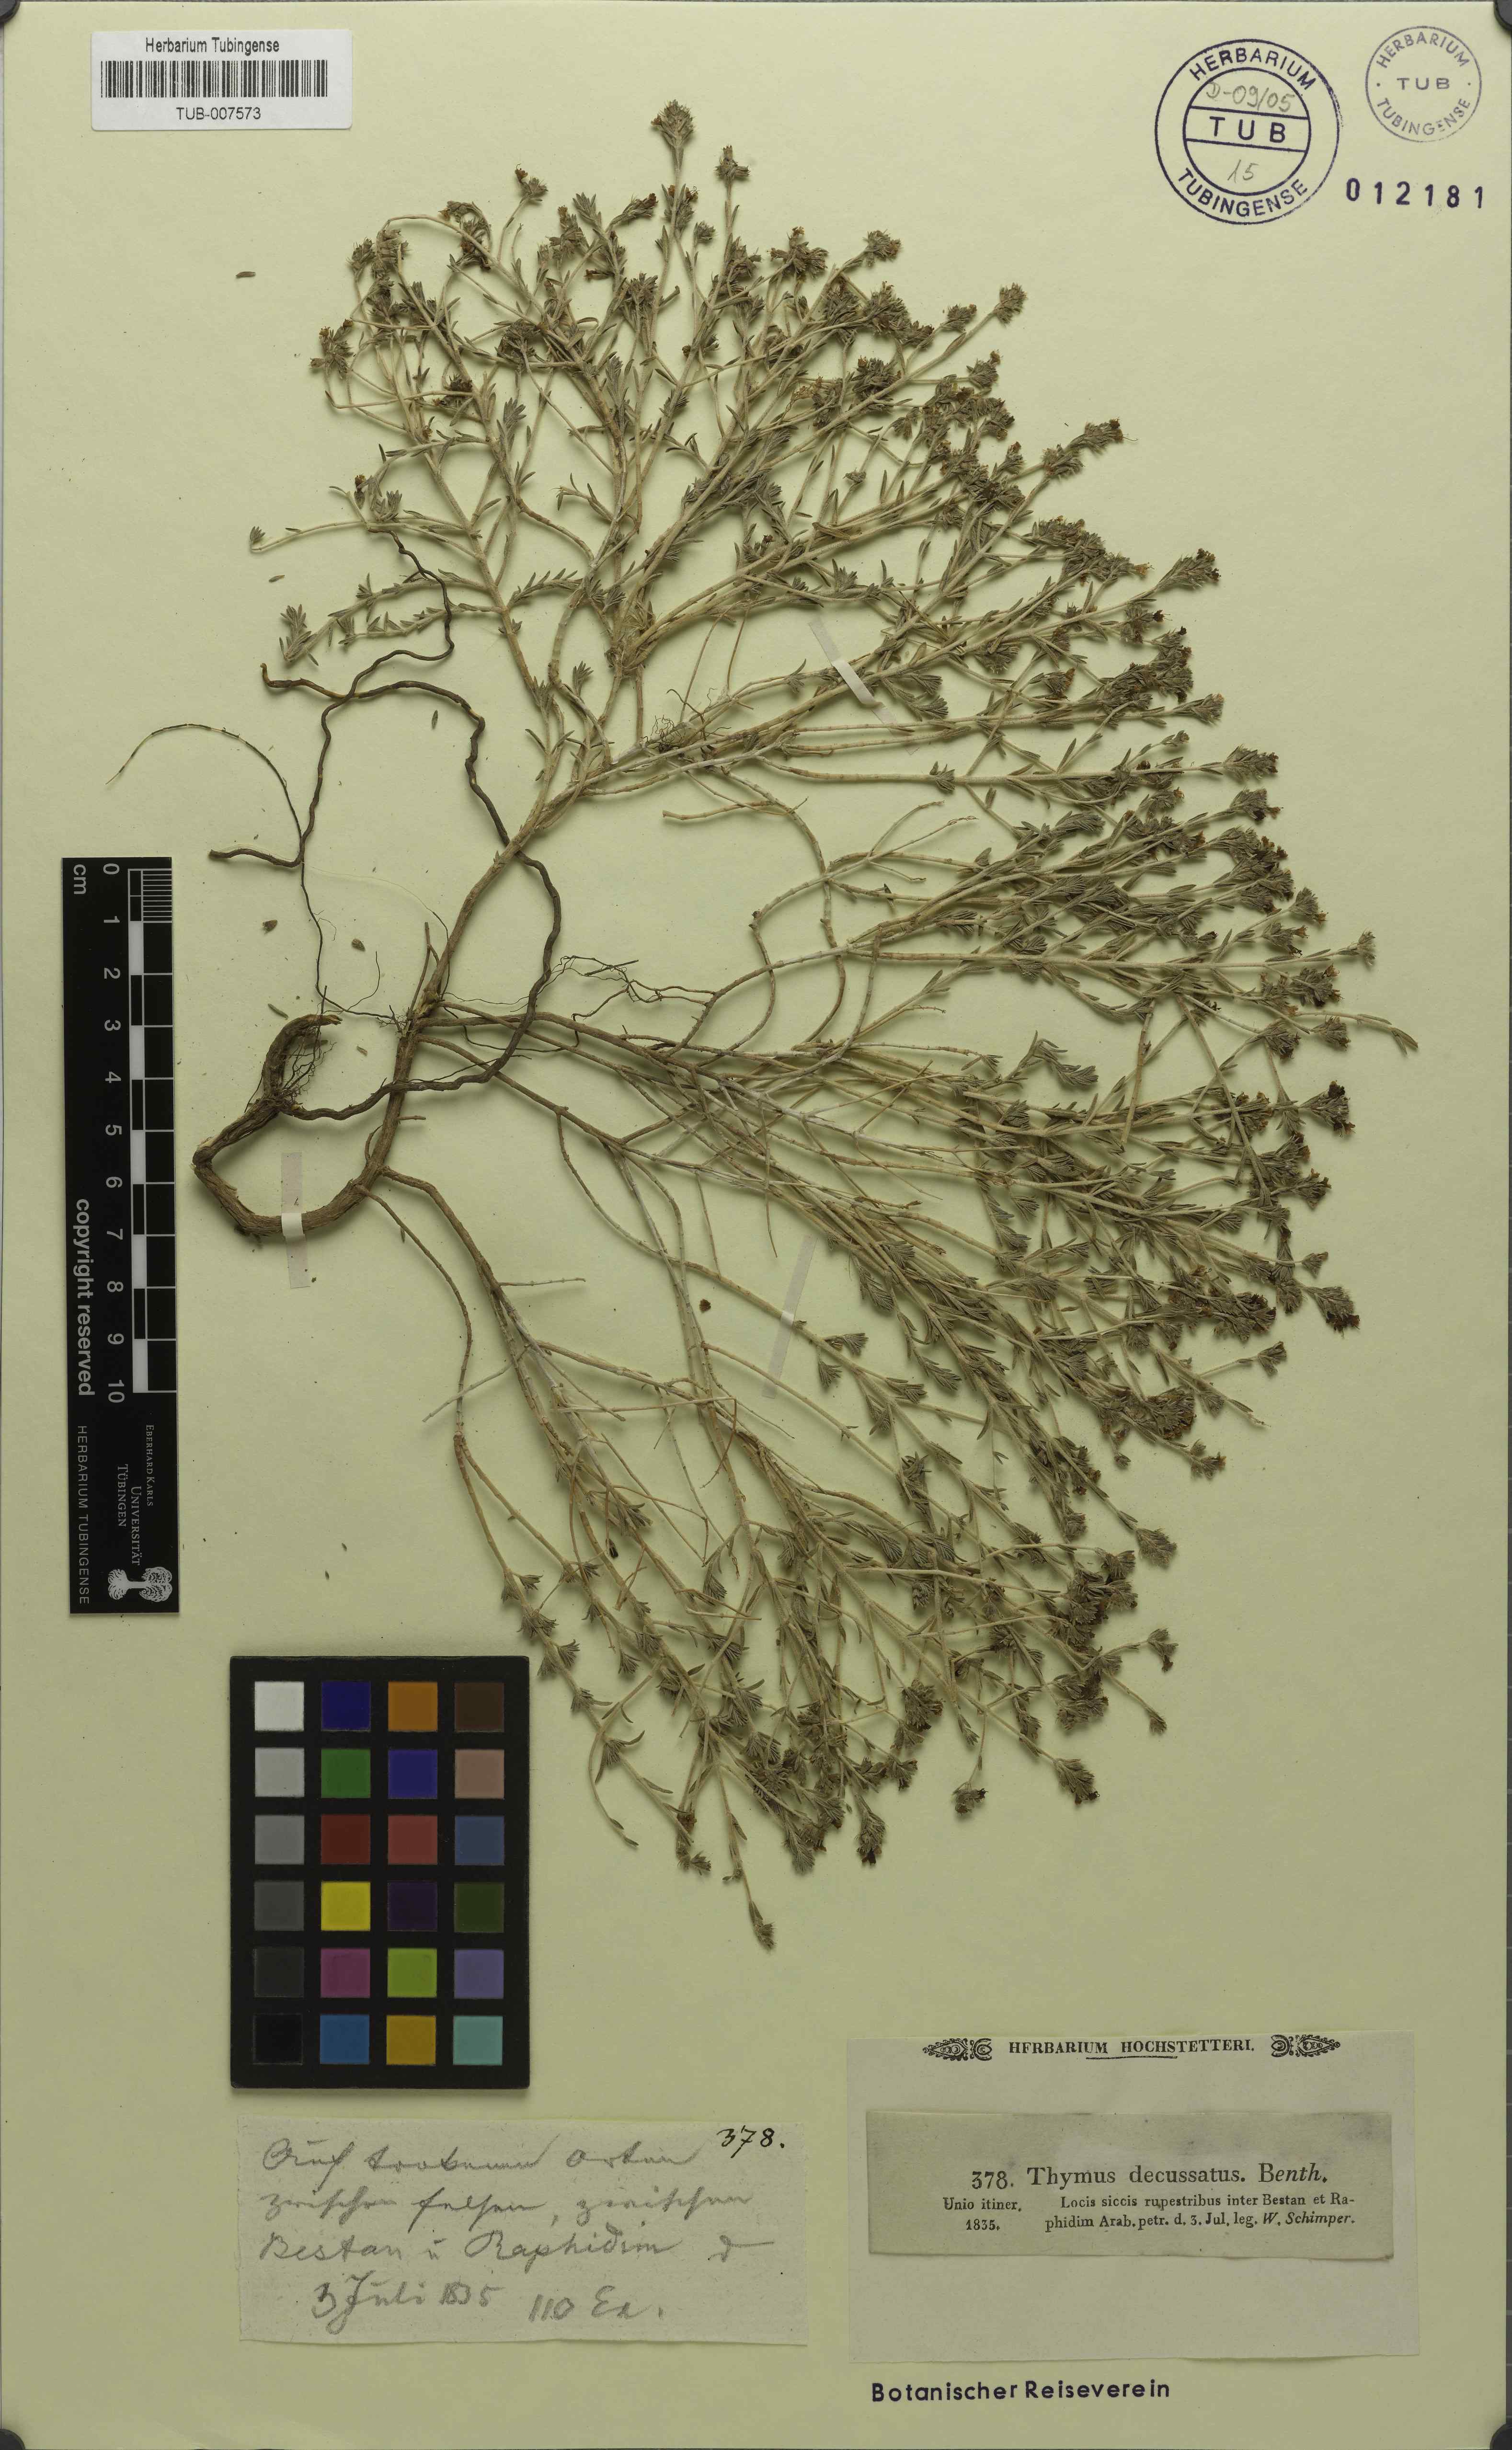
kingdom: Plantae
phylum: Tracheophyta
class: Magnoliopsida
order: Lamiales
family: Lamiaceae
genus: Thymus
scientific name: Thymus decussatus
